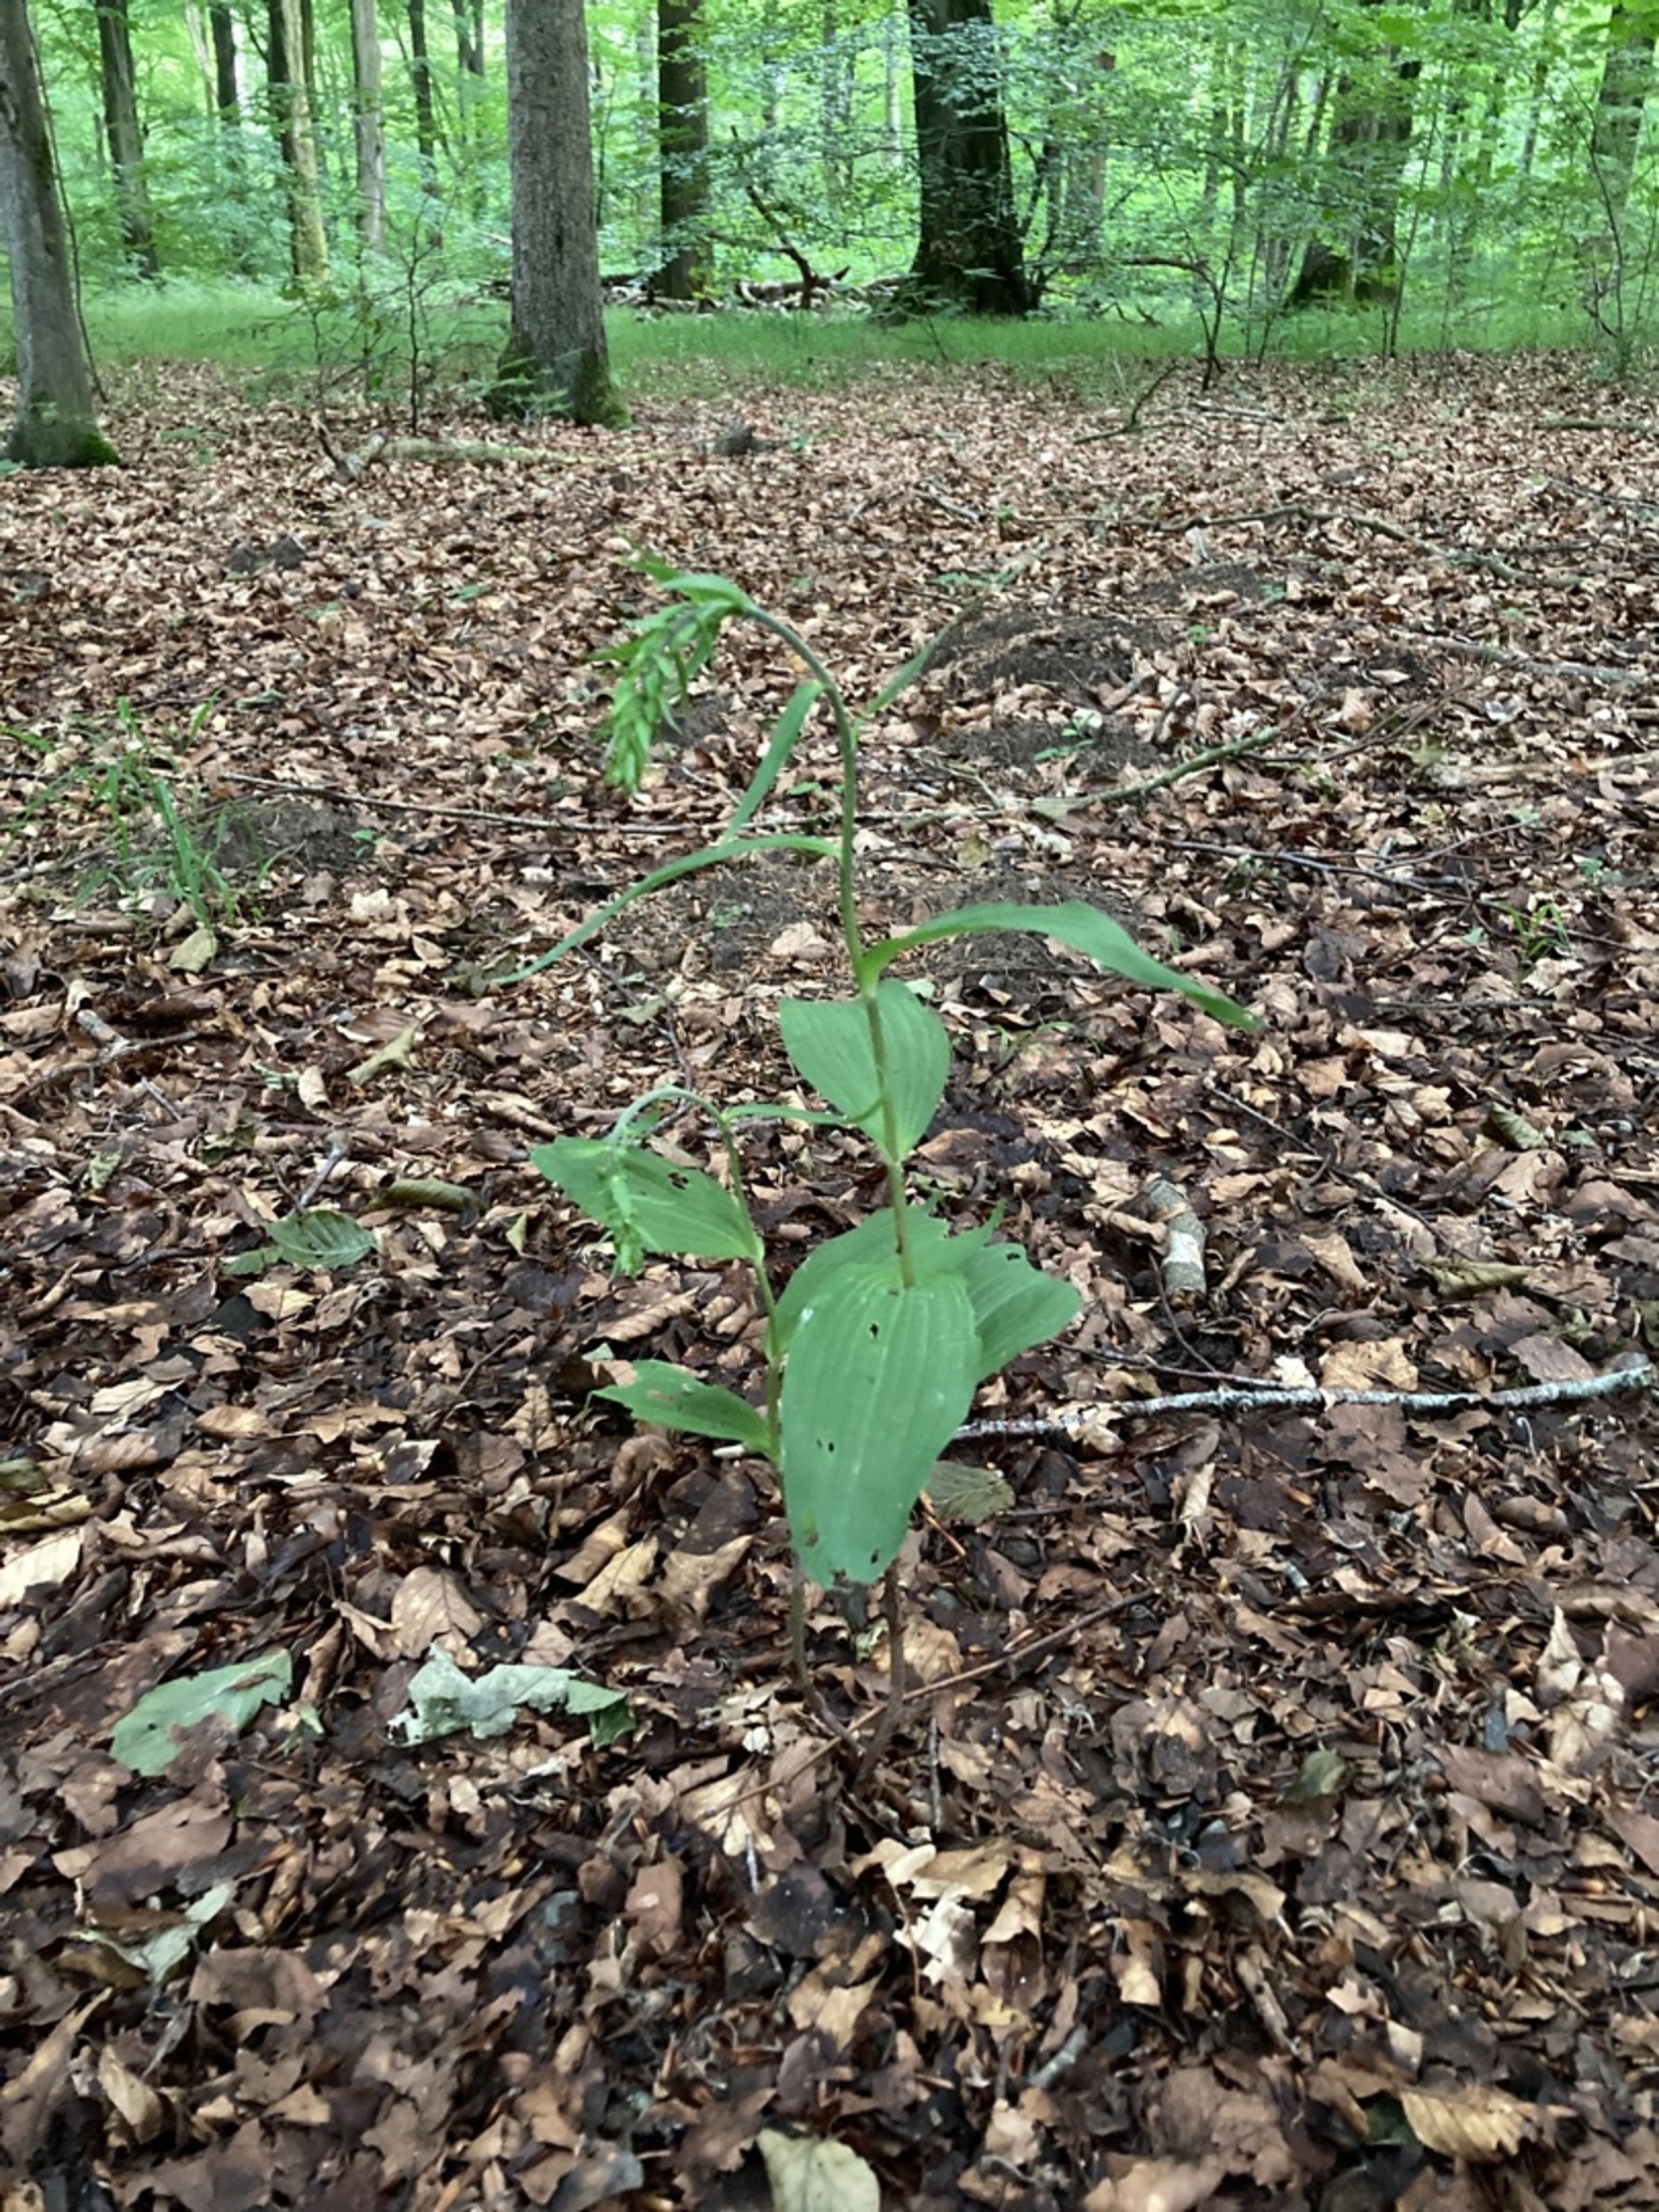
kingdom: Plantae
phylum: Tracheophyta
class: Liliopsida
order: Asparagales
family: Orchidaceae
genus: Epipactis
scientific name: Epipactis helleborine
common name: Skov-hullæbe
